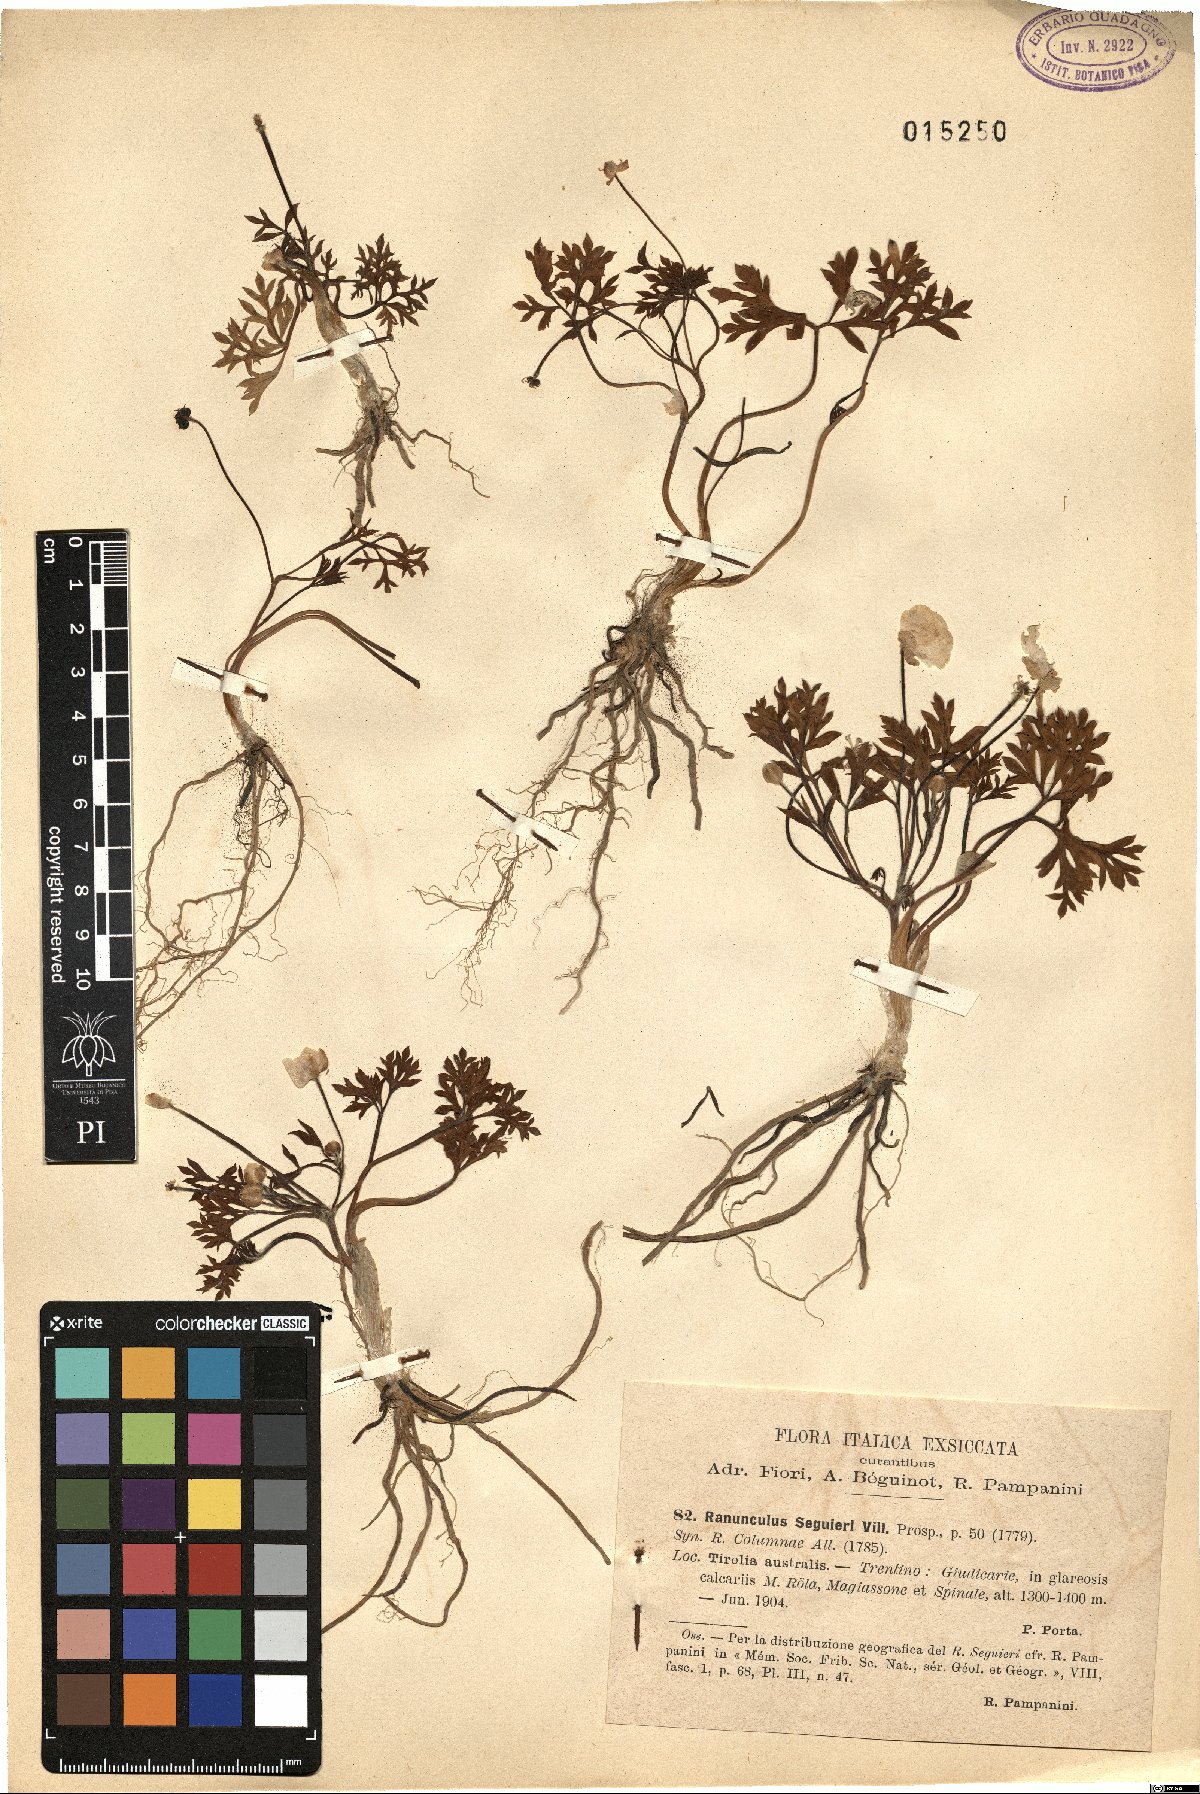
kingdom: Plantae
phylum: Tracheophyta
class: Magnoliopsida
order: Ranunculales
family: Ranunculaceae
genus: Ranunculus
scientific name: Ranunculus seguieri
